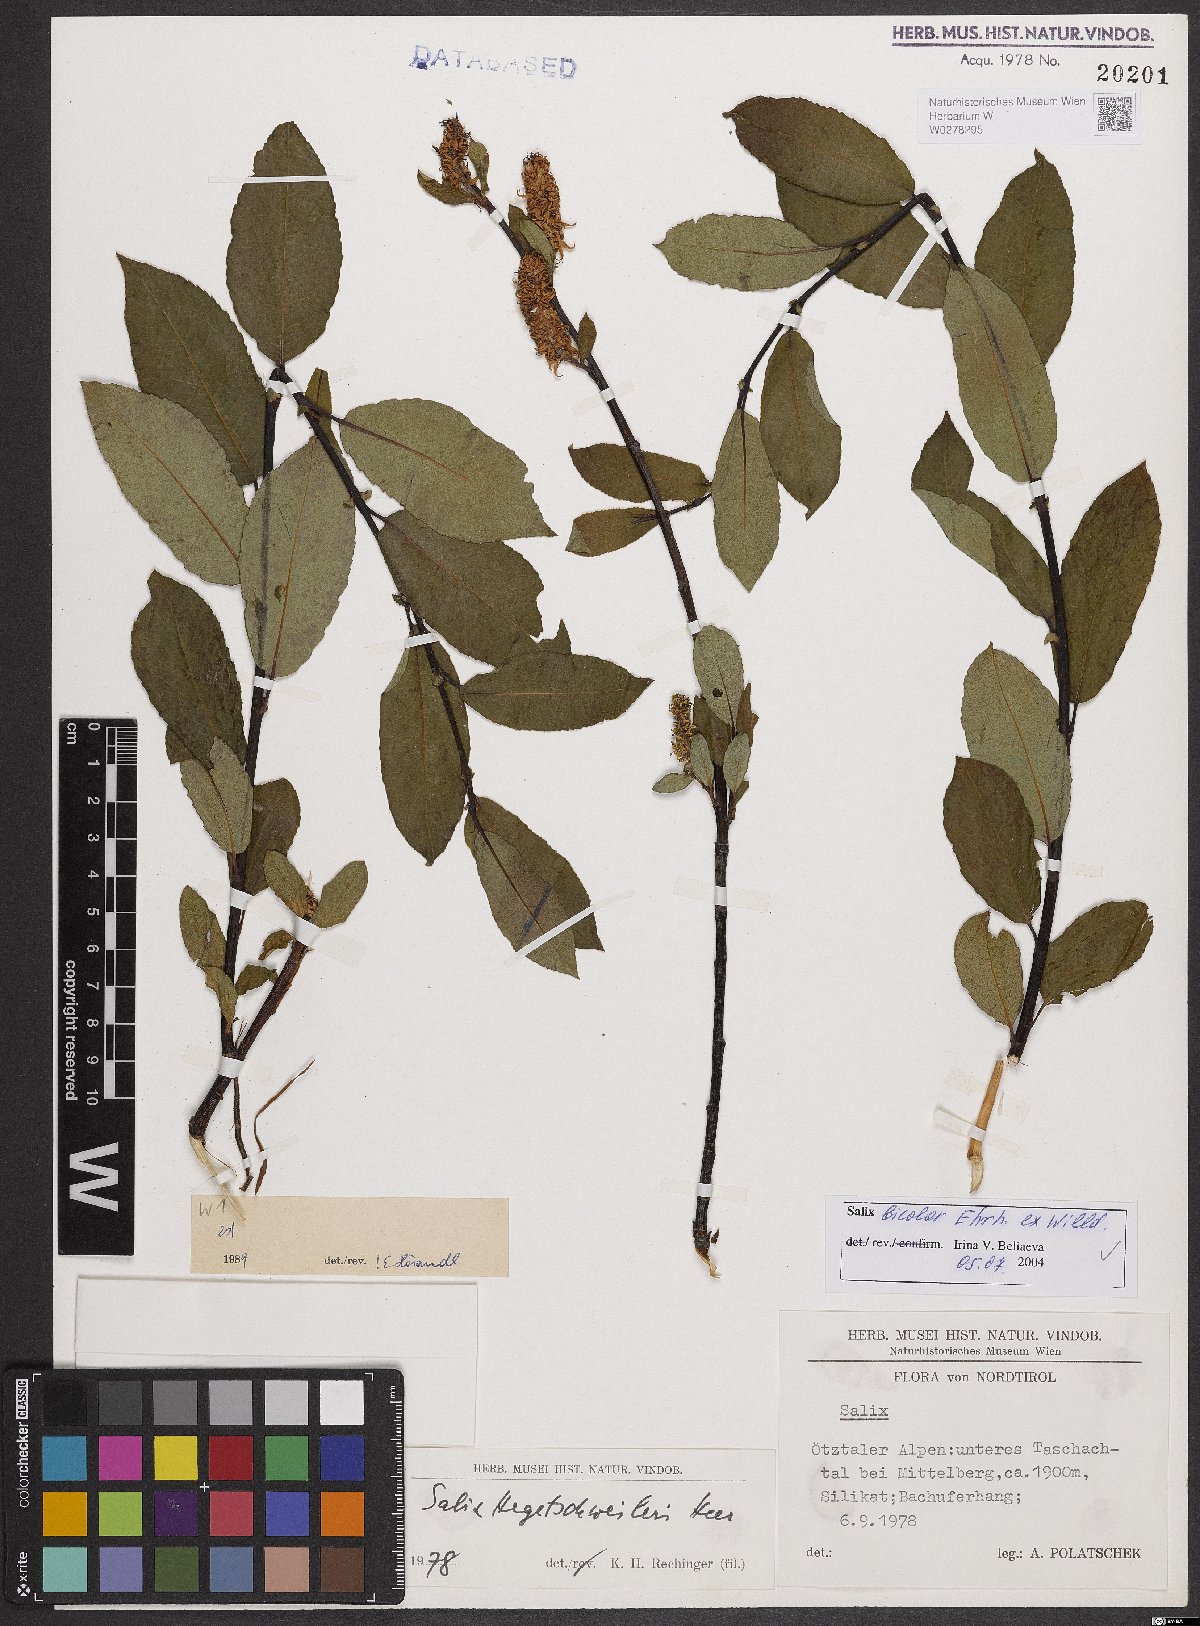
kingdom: Plantae
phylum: Tracheophyta
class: Magnoliopsida
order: Malpighiales
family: Salicaceae
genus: Salix
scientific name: Salix bicolor
